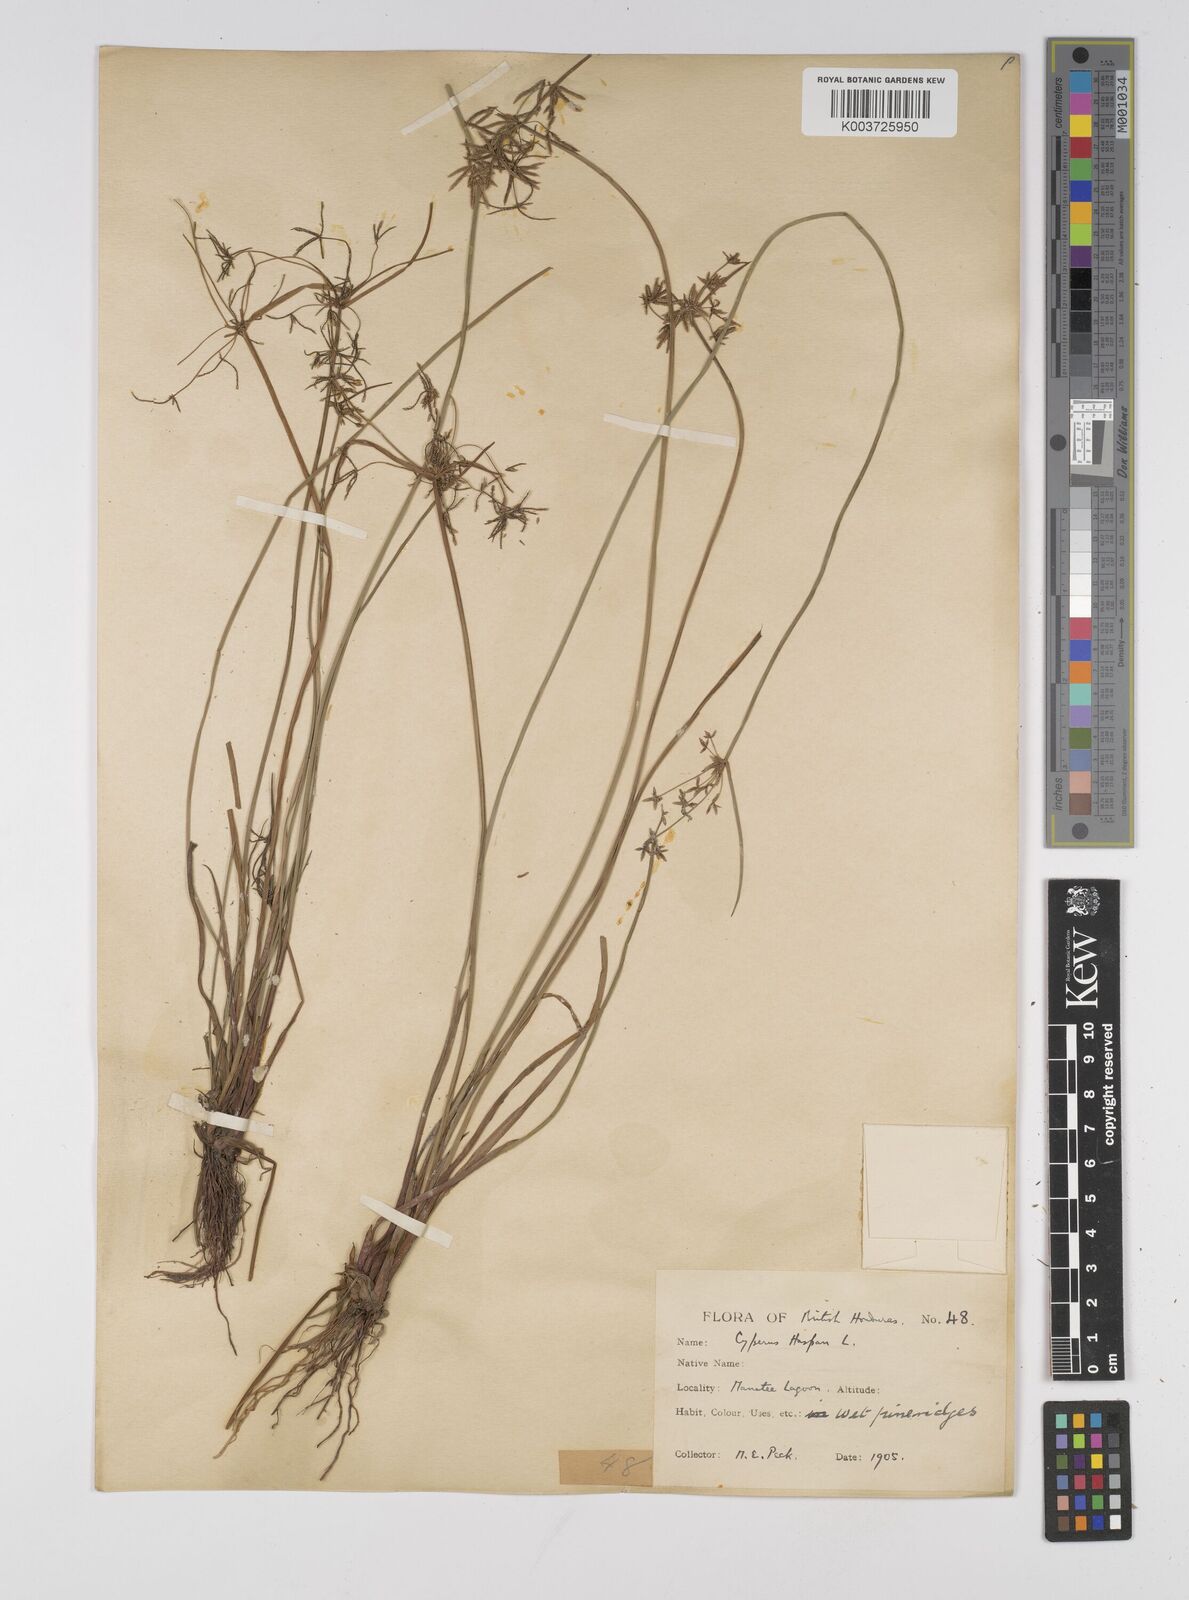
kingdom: Plantae
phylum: Tracheophyta
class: Liliopsida
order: Poales
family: Cyperaceae
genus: Cyperus
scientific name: Cyperus haspan
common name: Haspan flatsedge
